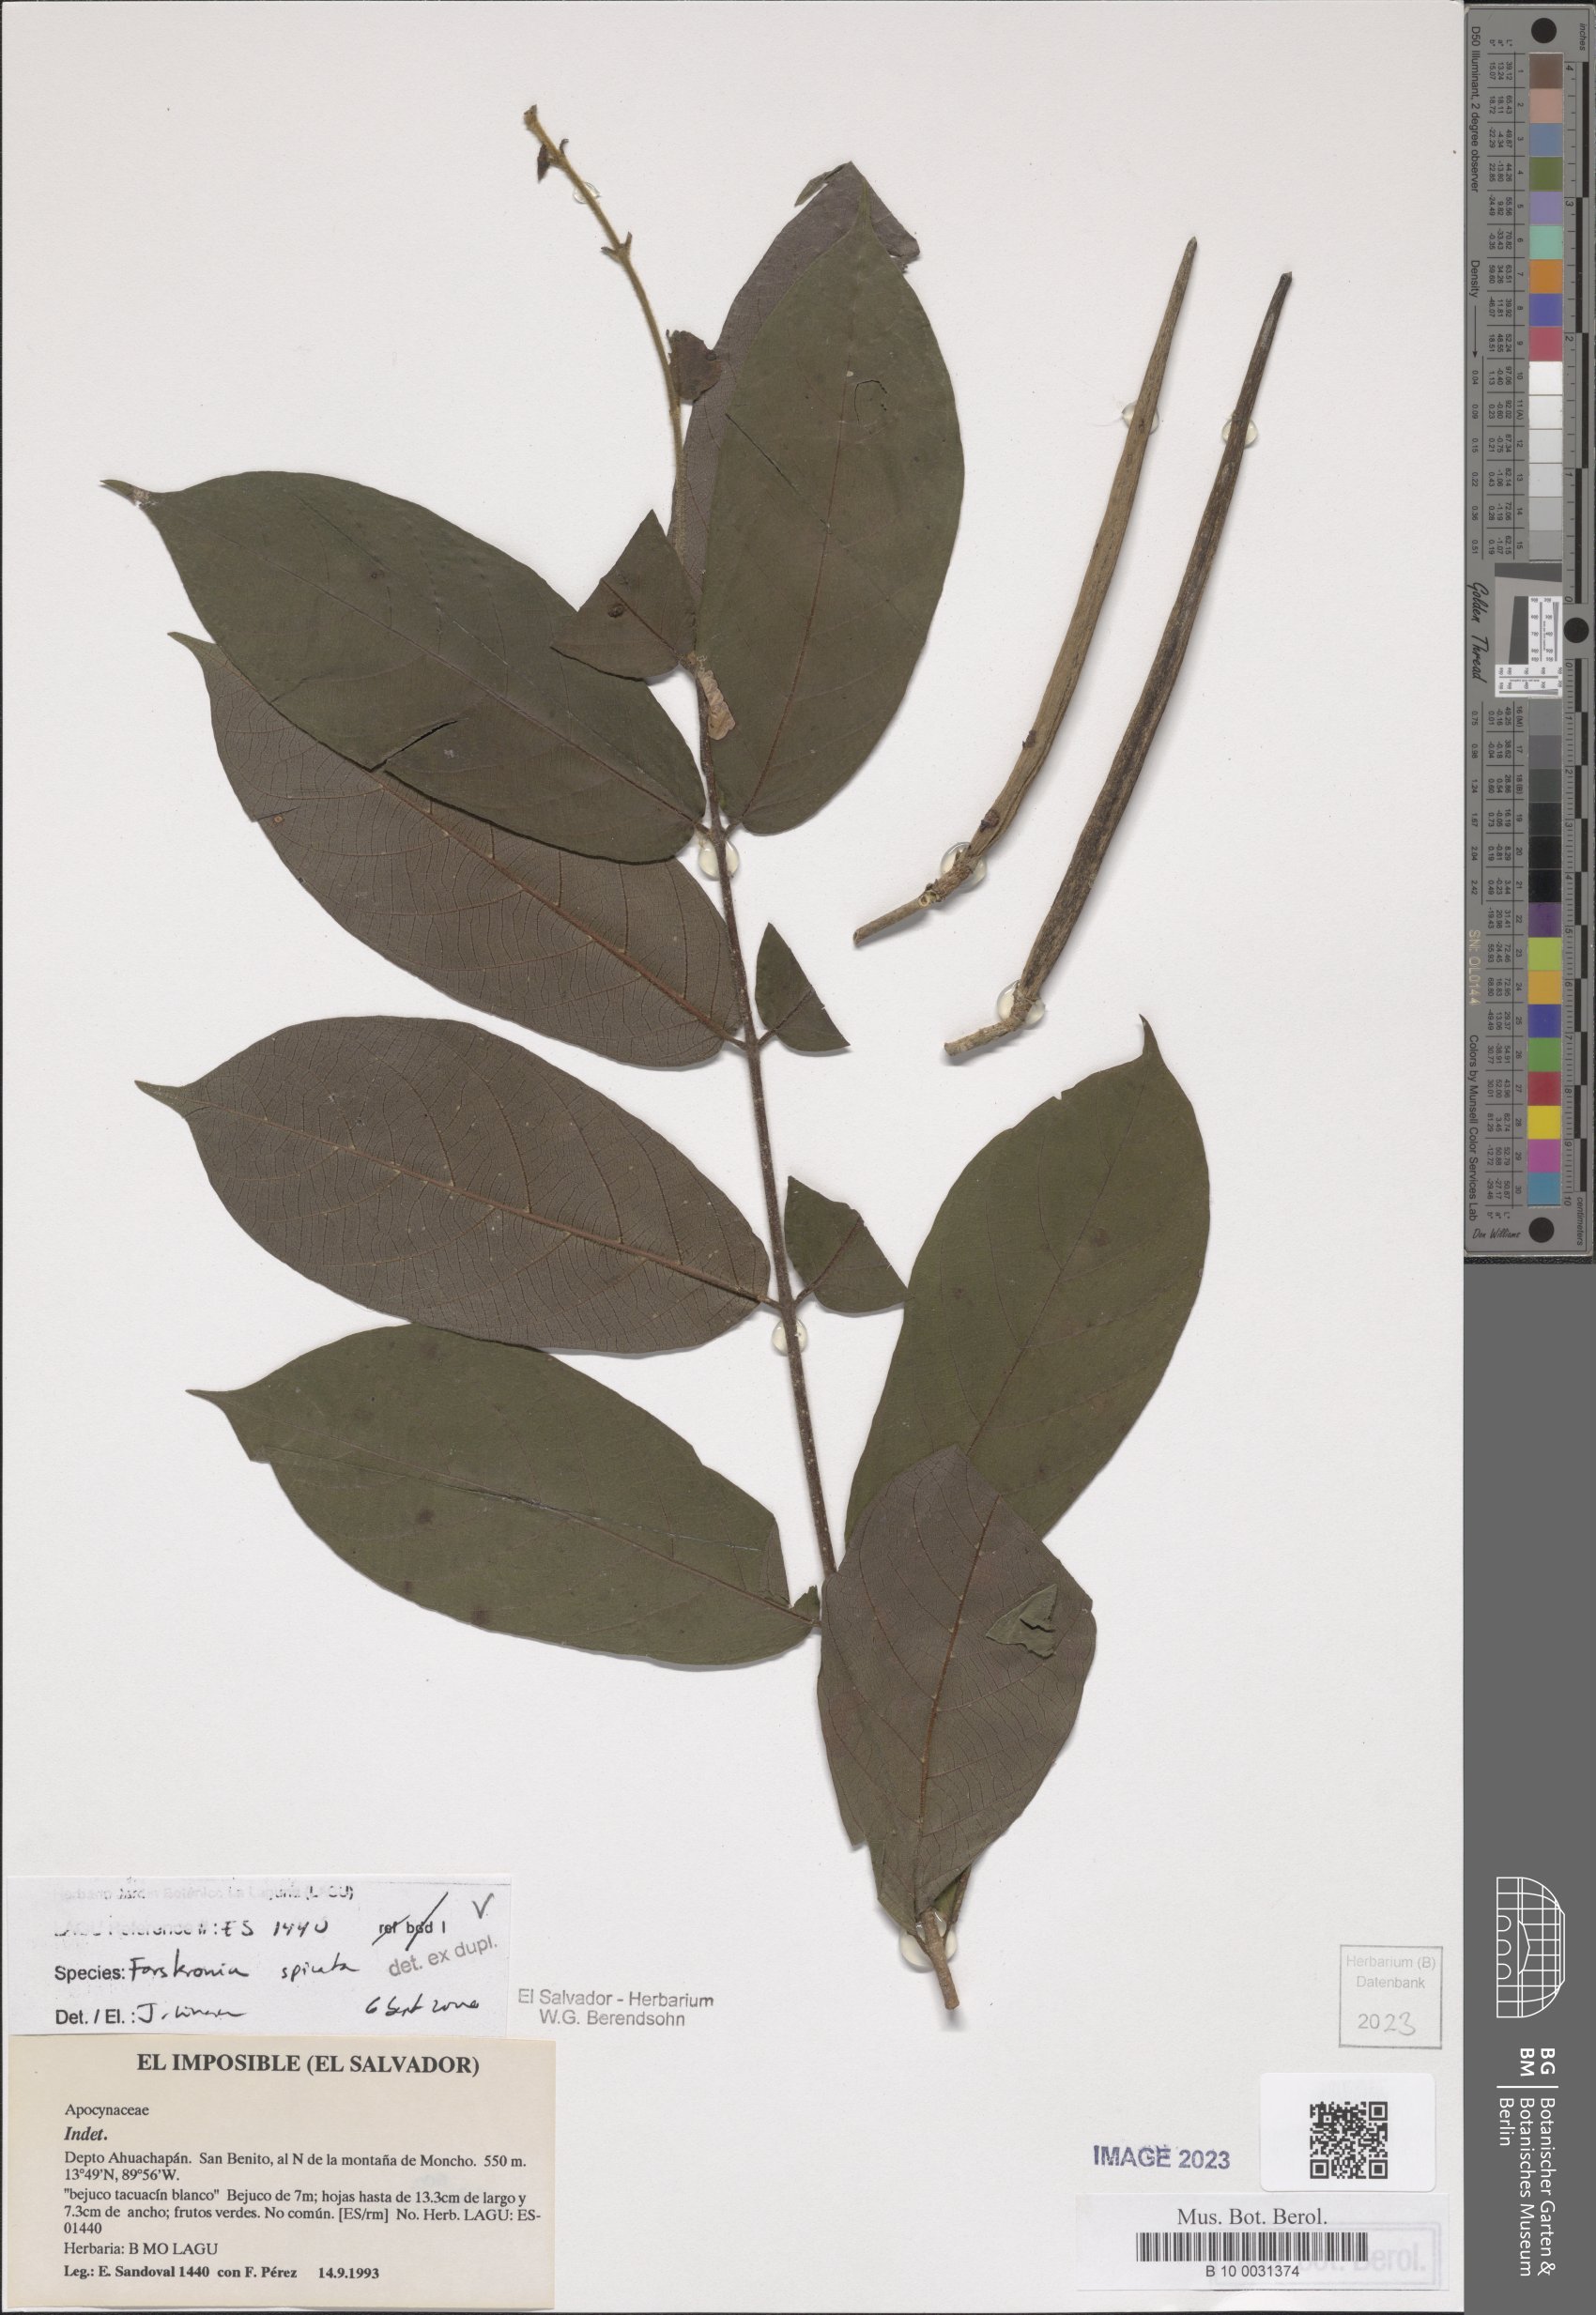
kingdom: Plantae
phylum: Tracheophyta
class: Magnoliopsida
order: Gentianales
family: Apocynaceae
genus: Forsteronia
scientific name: Forsteronia spicata
